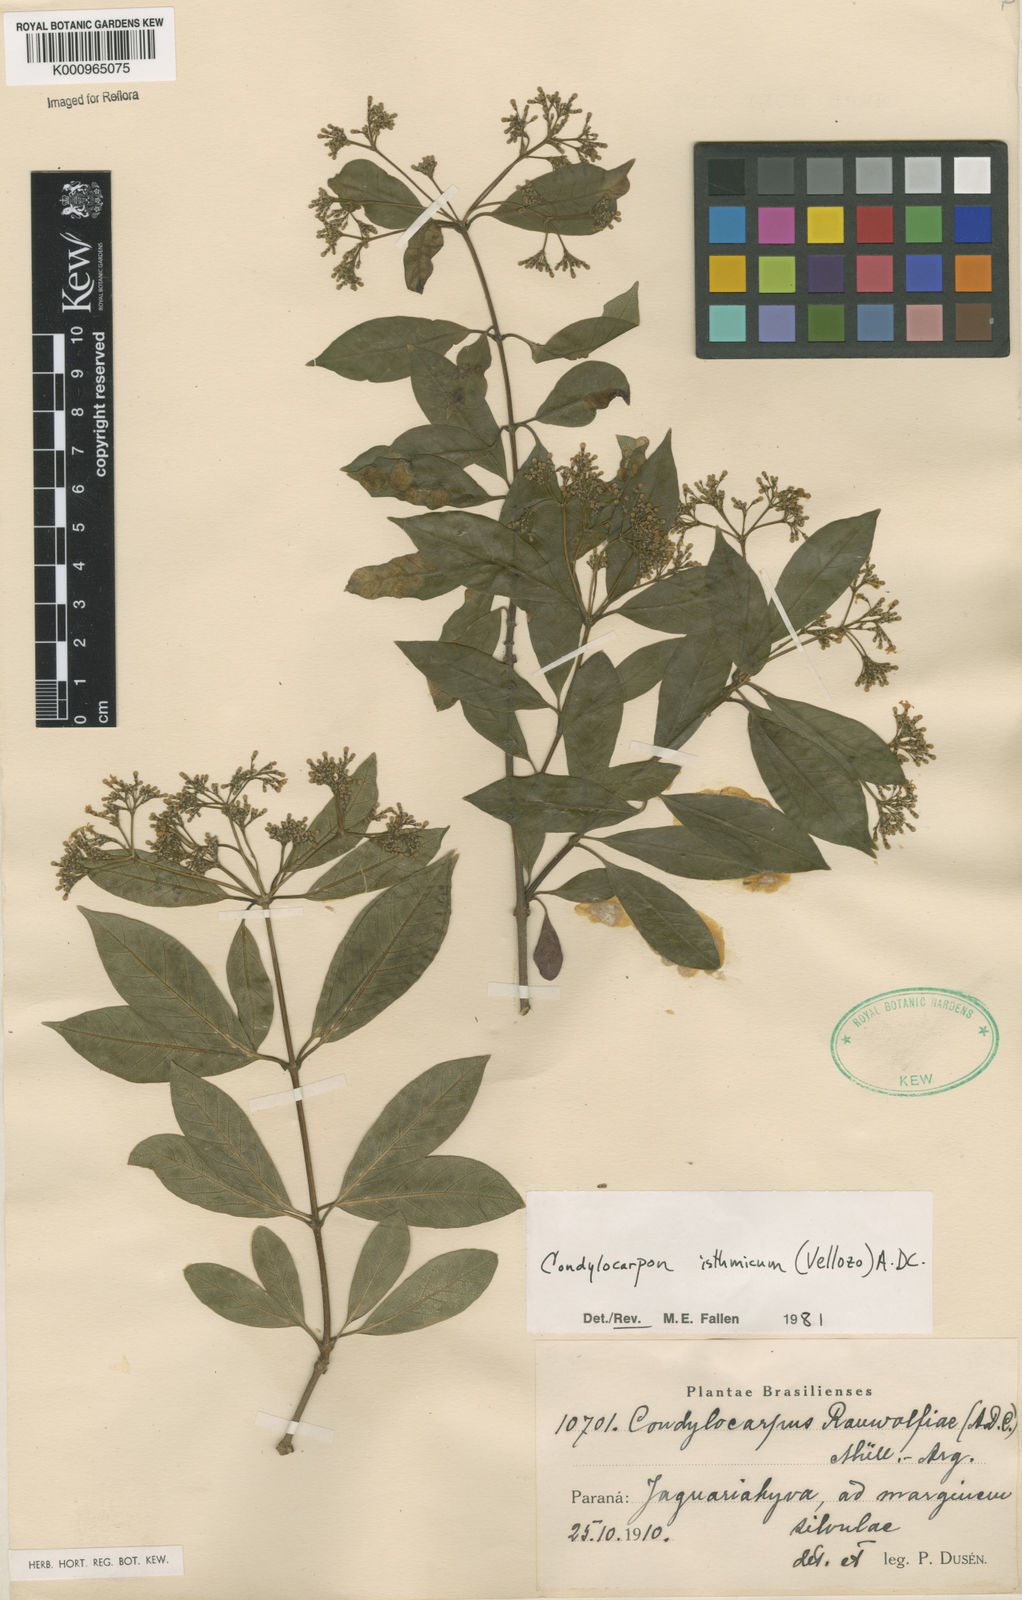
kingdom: Plantae
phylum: Tracheophyta
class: Magnoliopsida
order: Gentianales
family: Apocynaceae
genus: Condylocarpon
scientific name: Condylocarpon isthmicum
